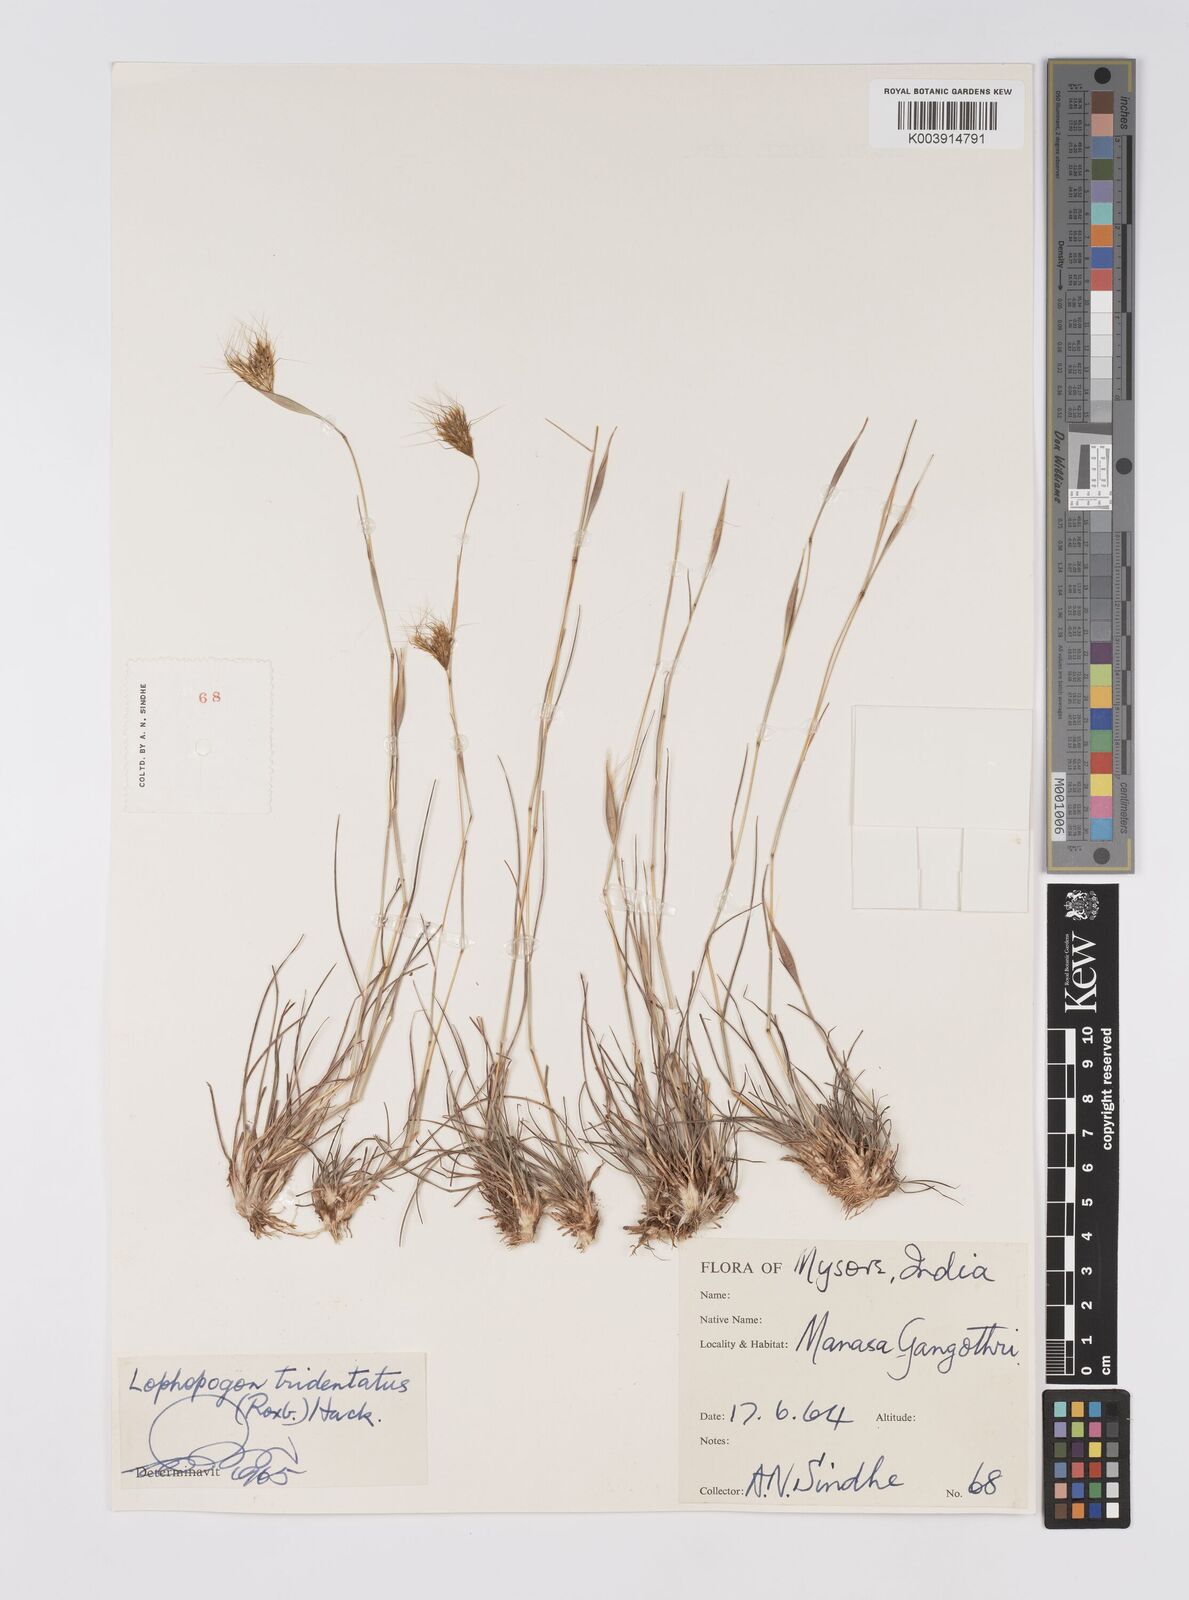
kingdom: Plantae
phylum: Tracheophyta
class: Liliopsida
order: Poales
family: Poaceae
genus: Lophopogon
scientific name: Lophopogon tridentatus
